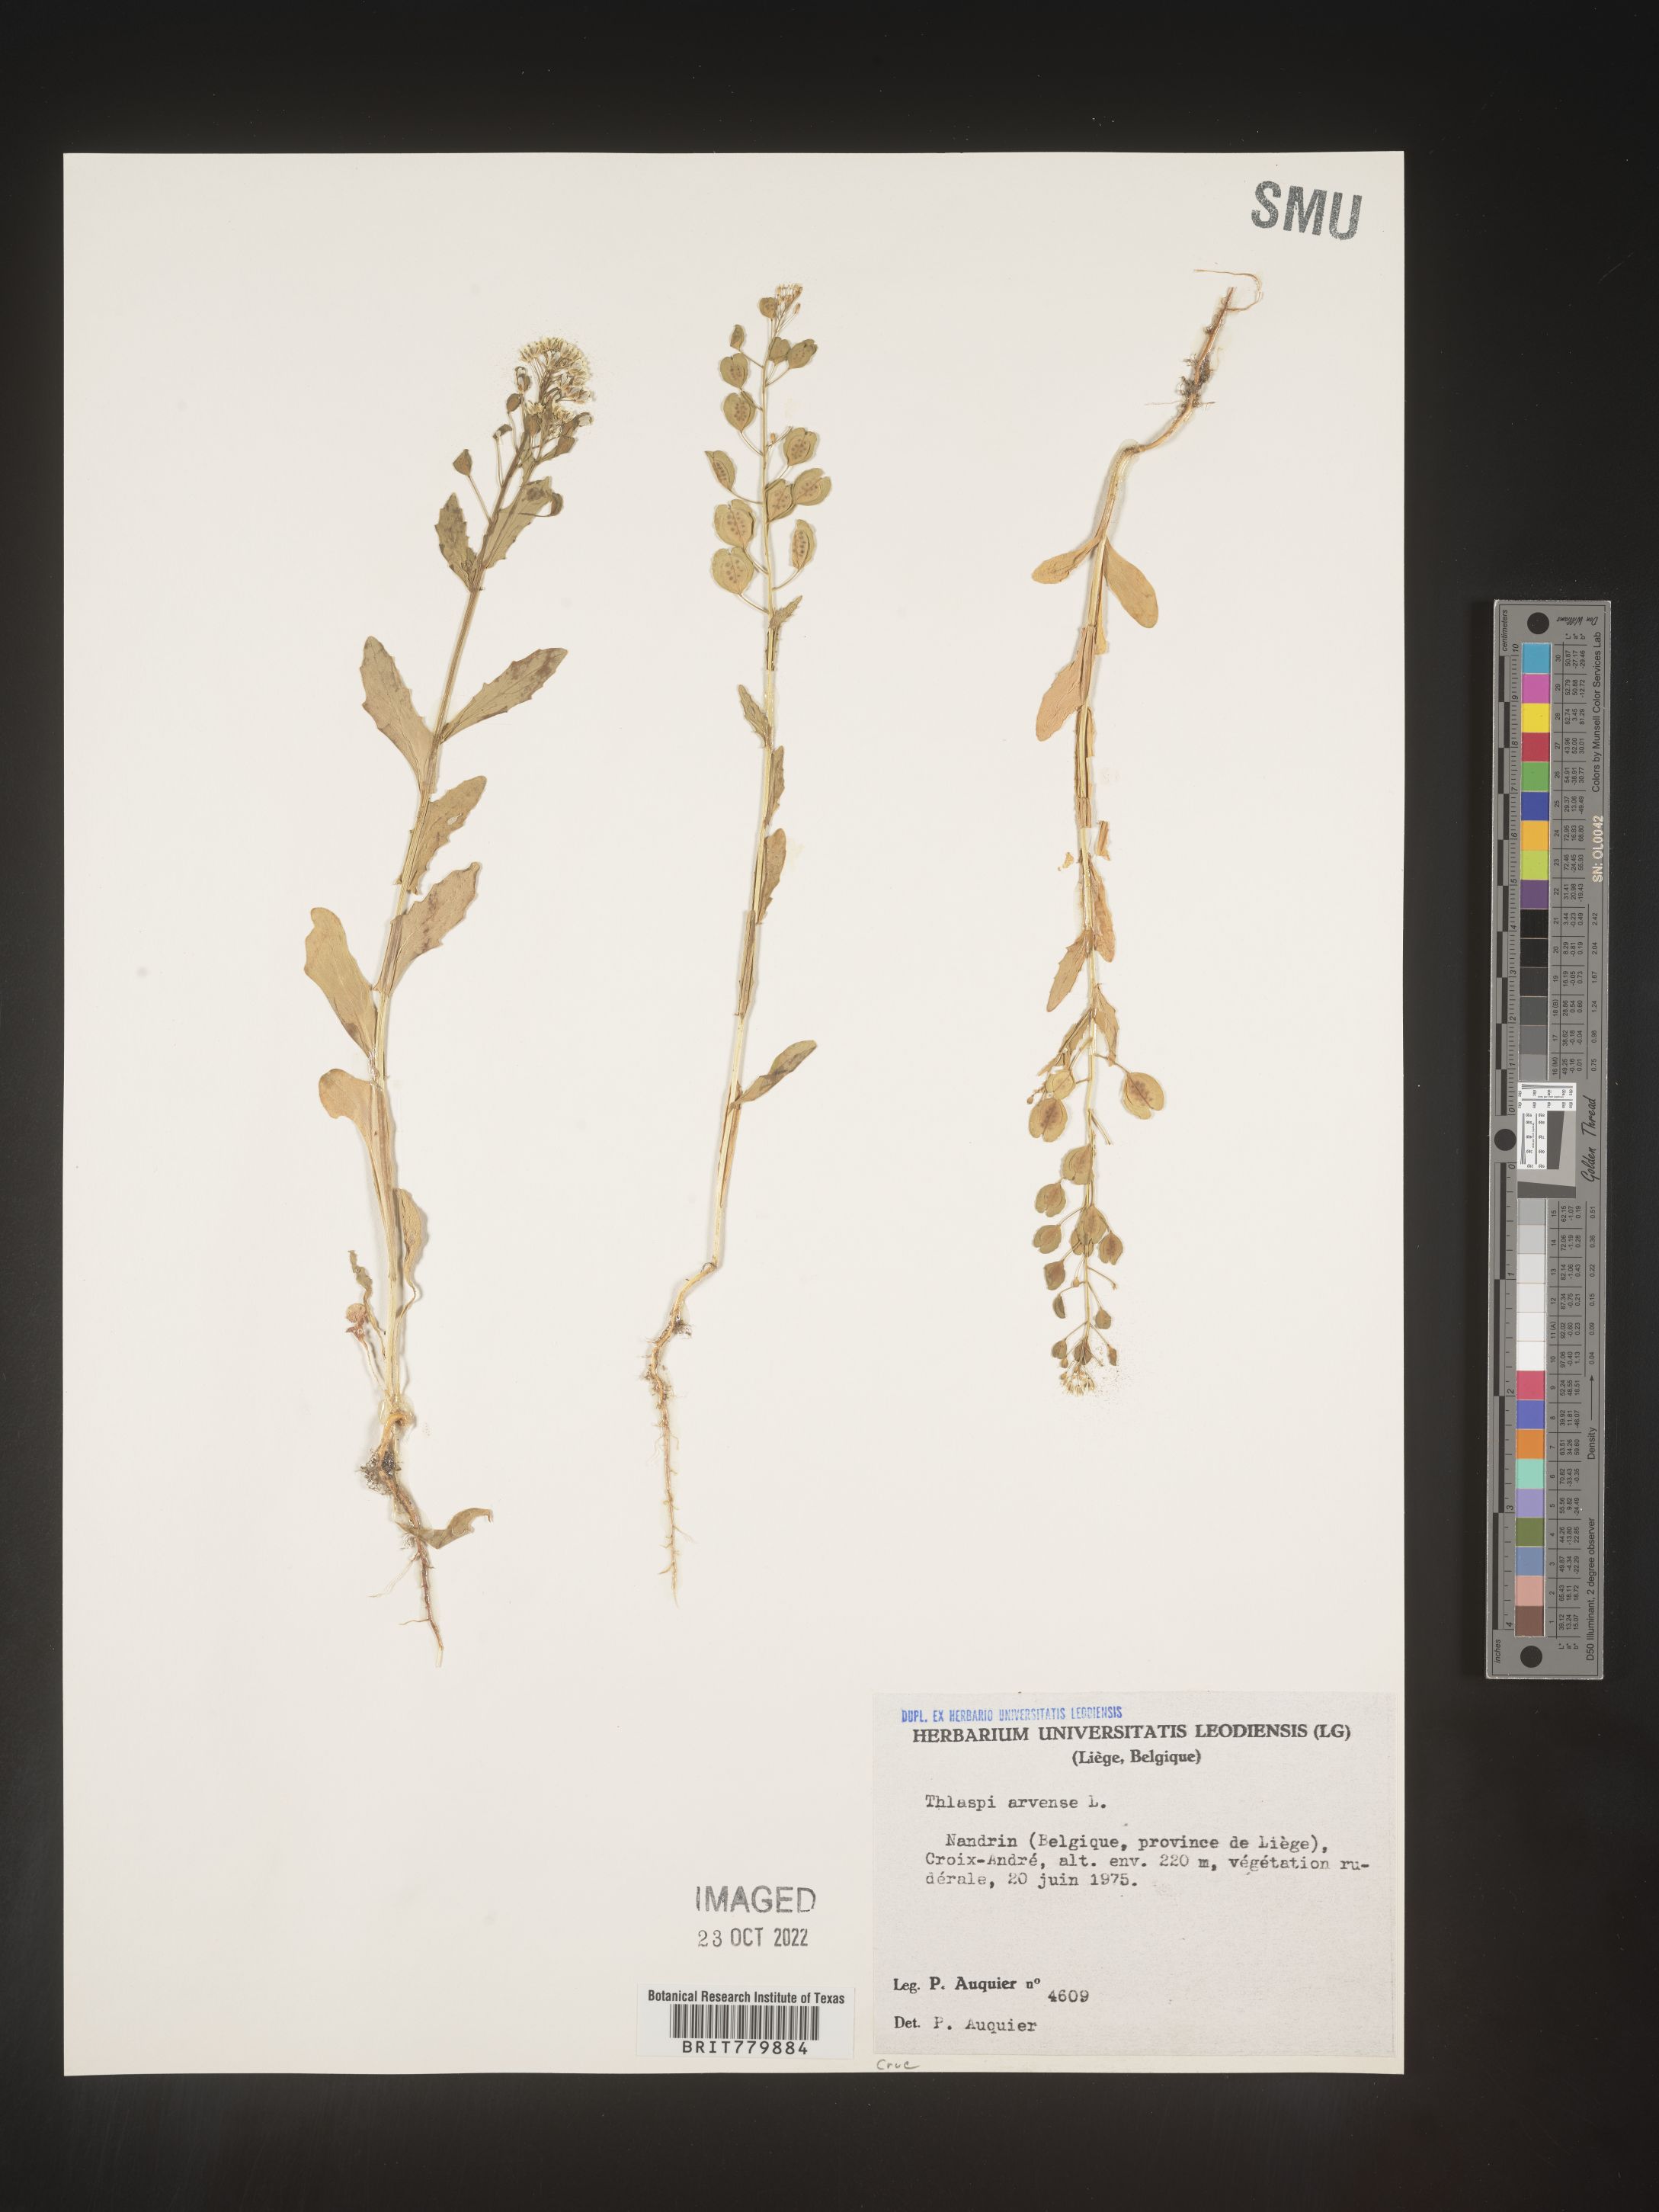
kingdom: Plantae
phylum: Tracheophyta
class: Magnoliopsida
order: Brassicales
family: Brassicaceae
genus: Thlaspi
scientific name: Thlaspi
